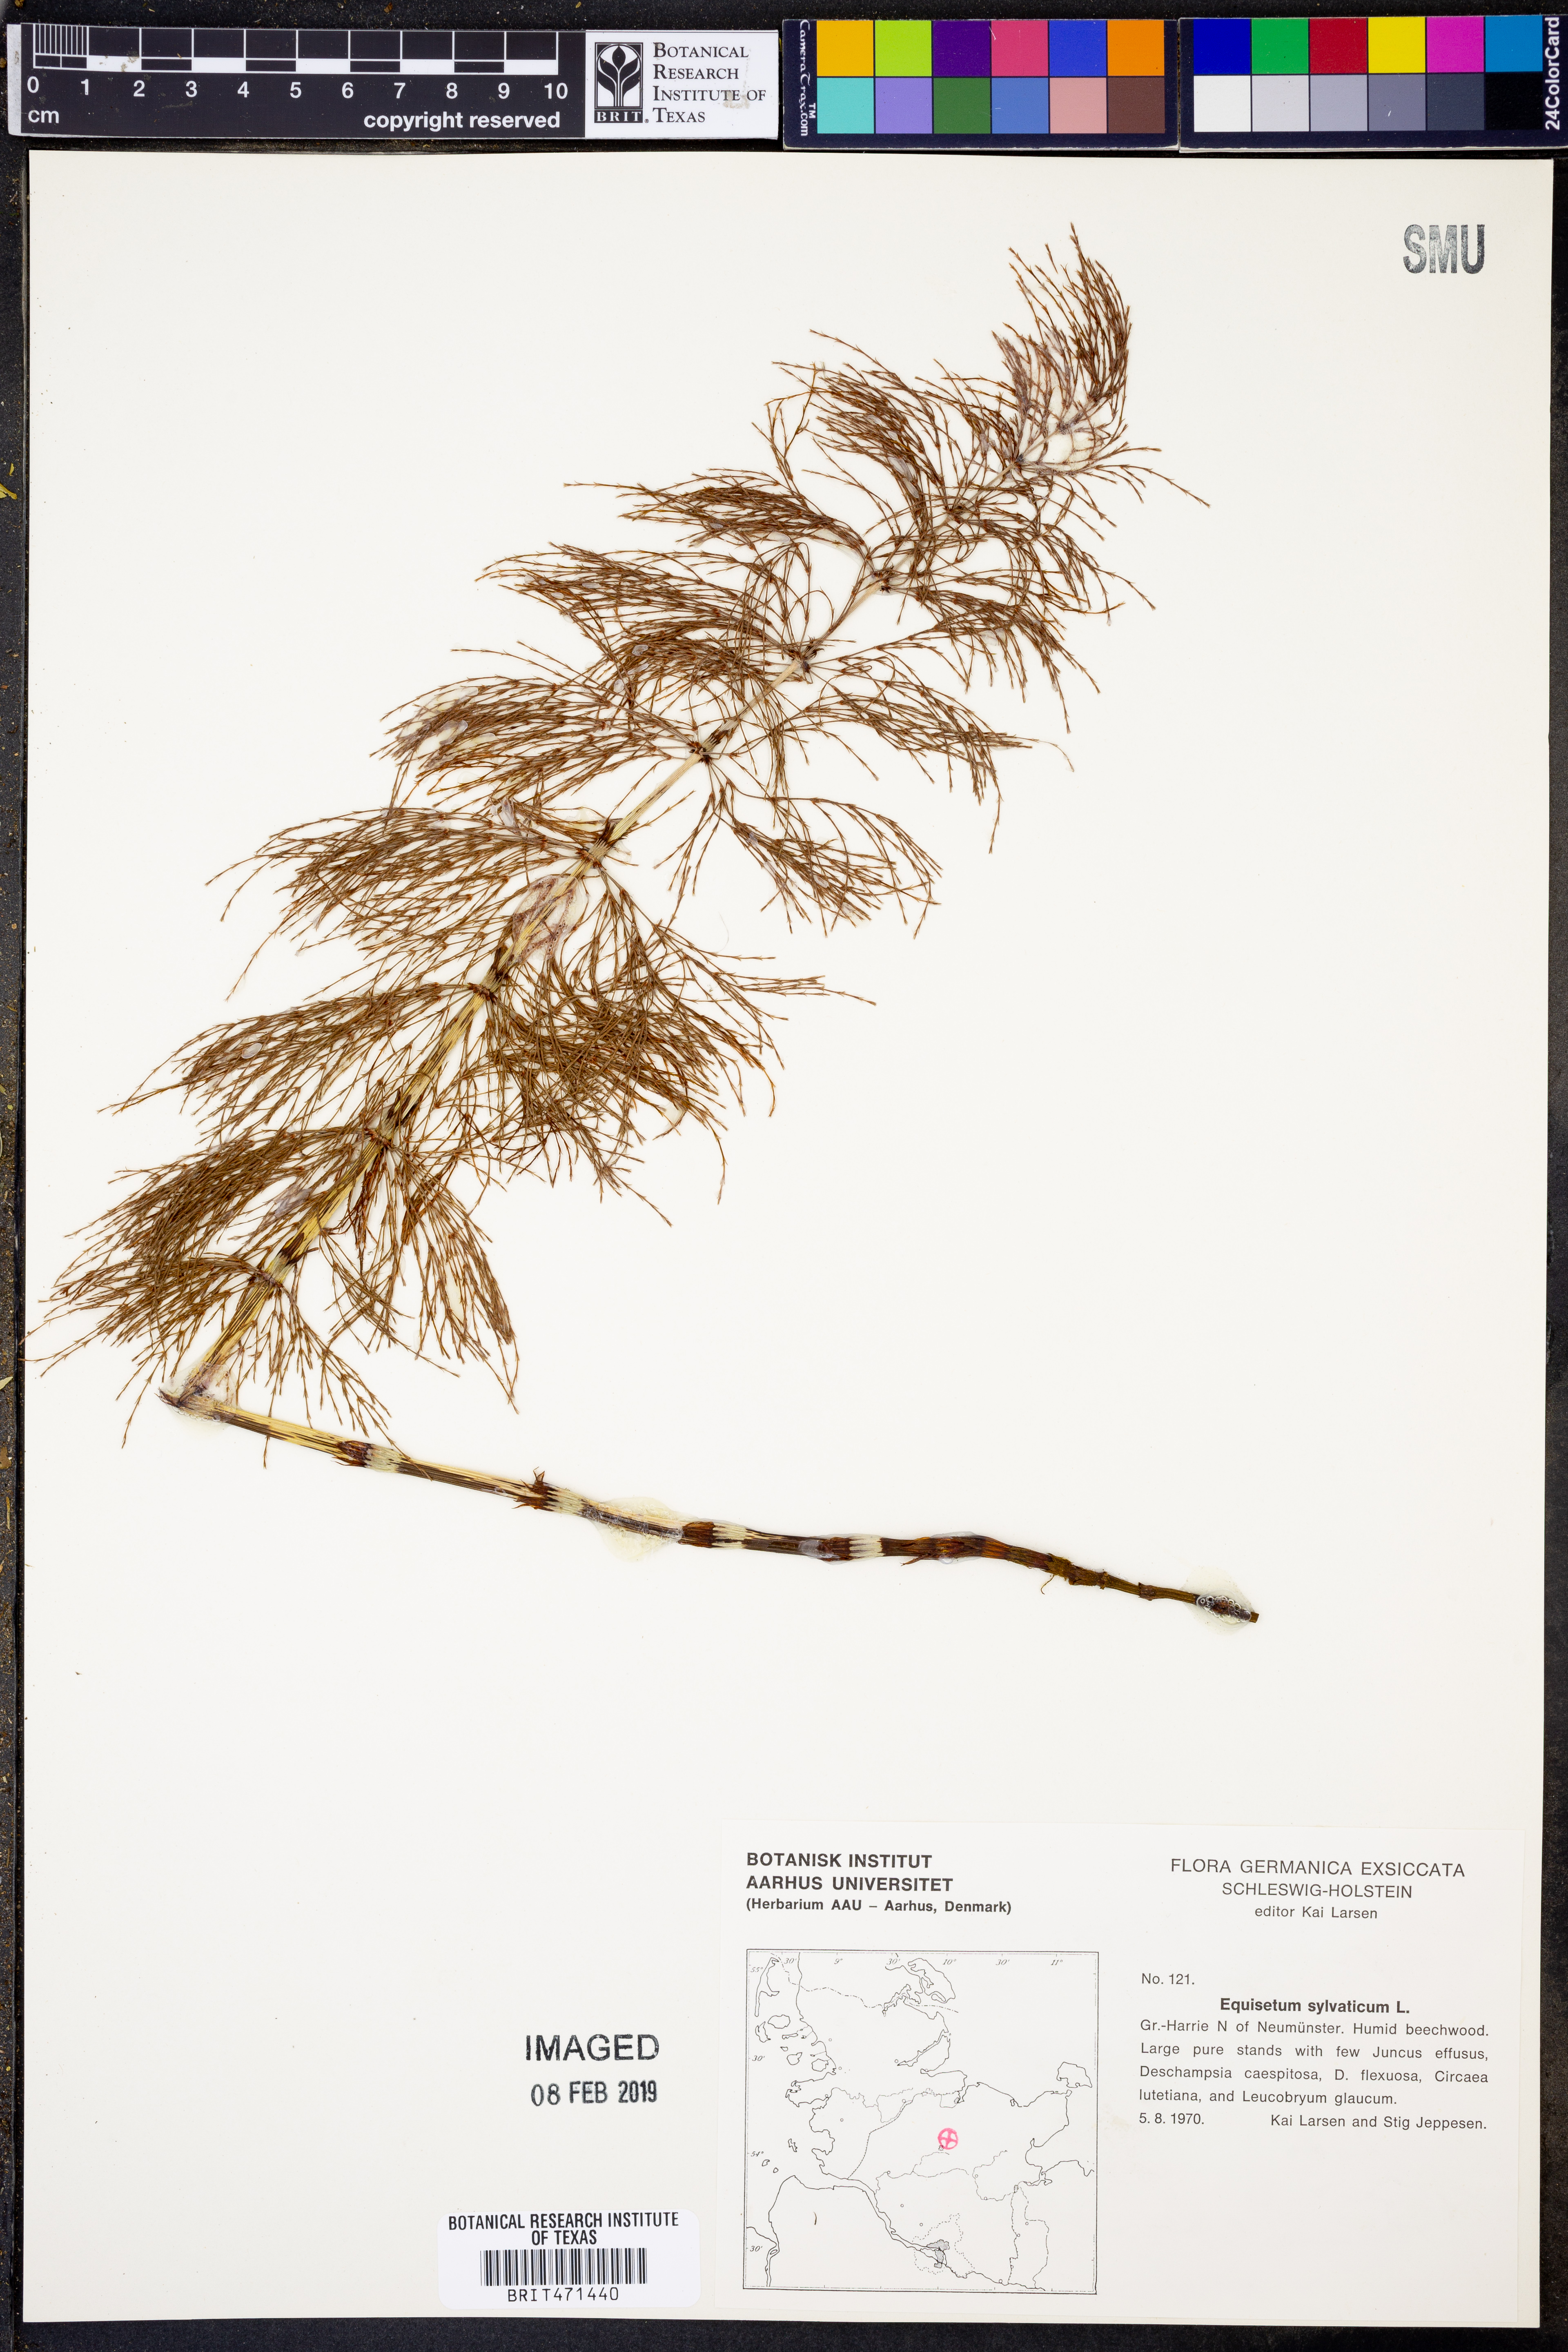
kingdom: Plantae
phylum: Tracheophyta
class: Polypodiopsida
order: Equisetales
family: Equisetaceae
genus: Equisetum
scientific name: Equisetum sylvaticum
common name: Wood horsetail
